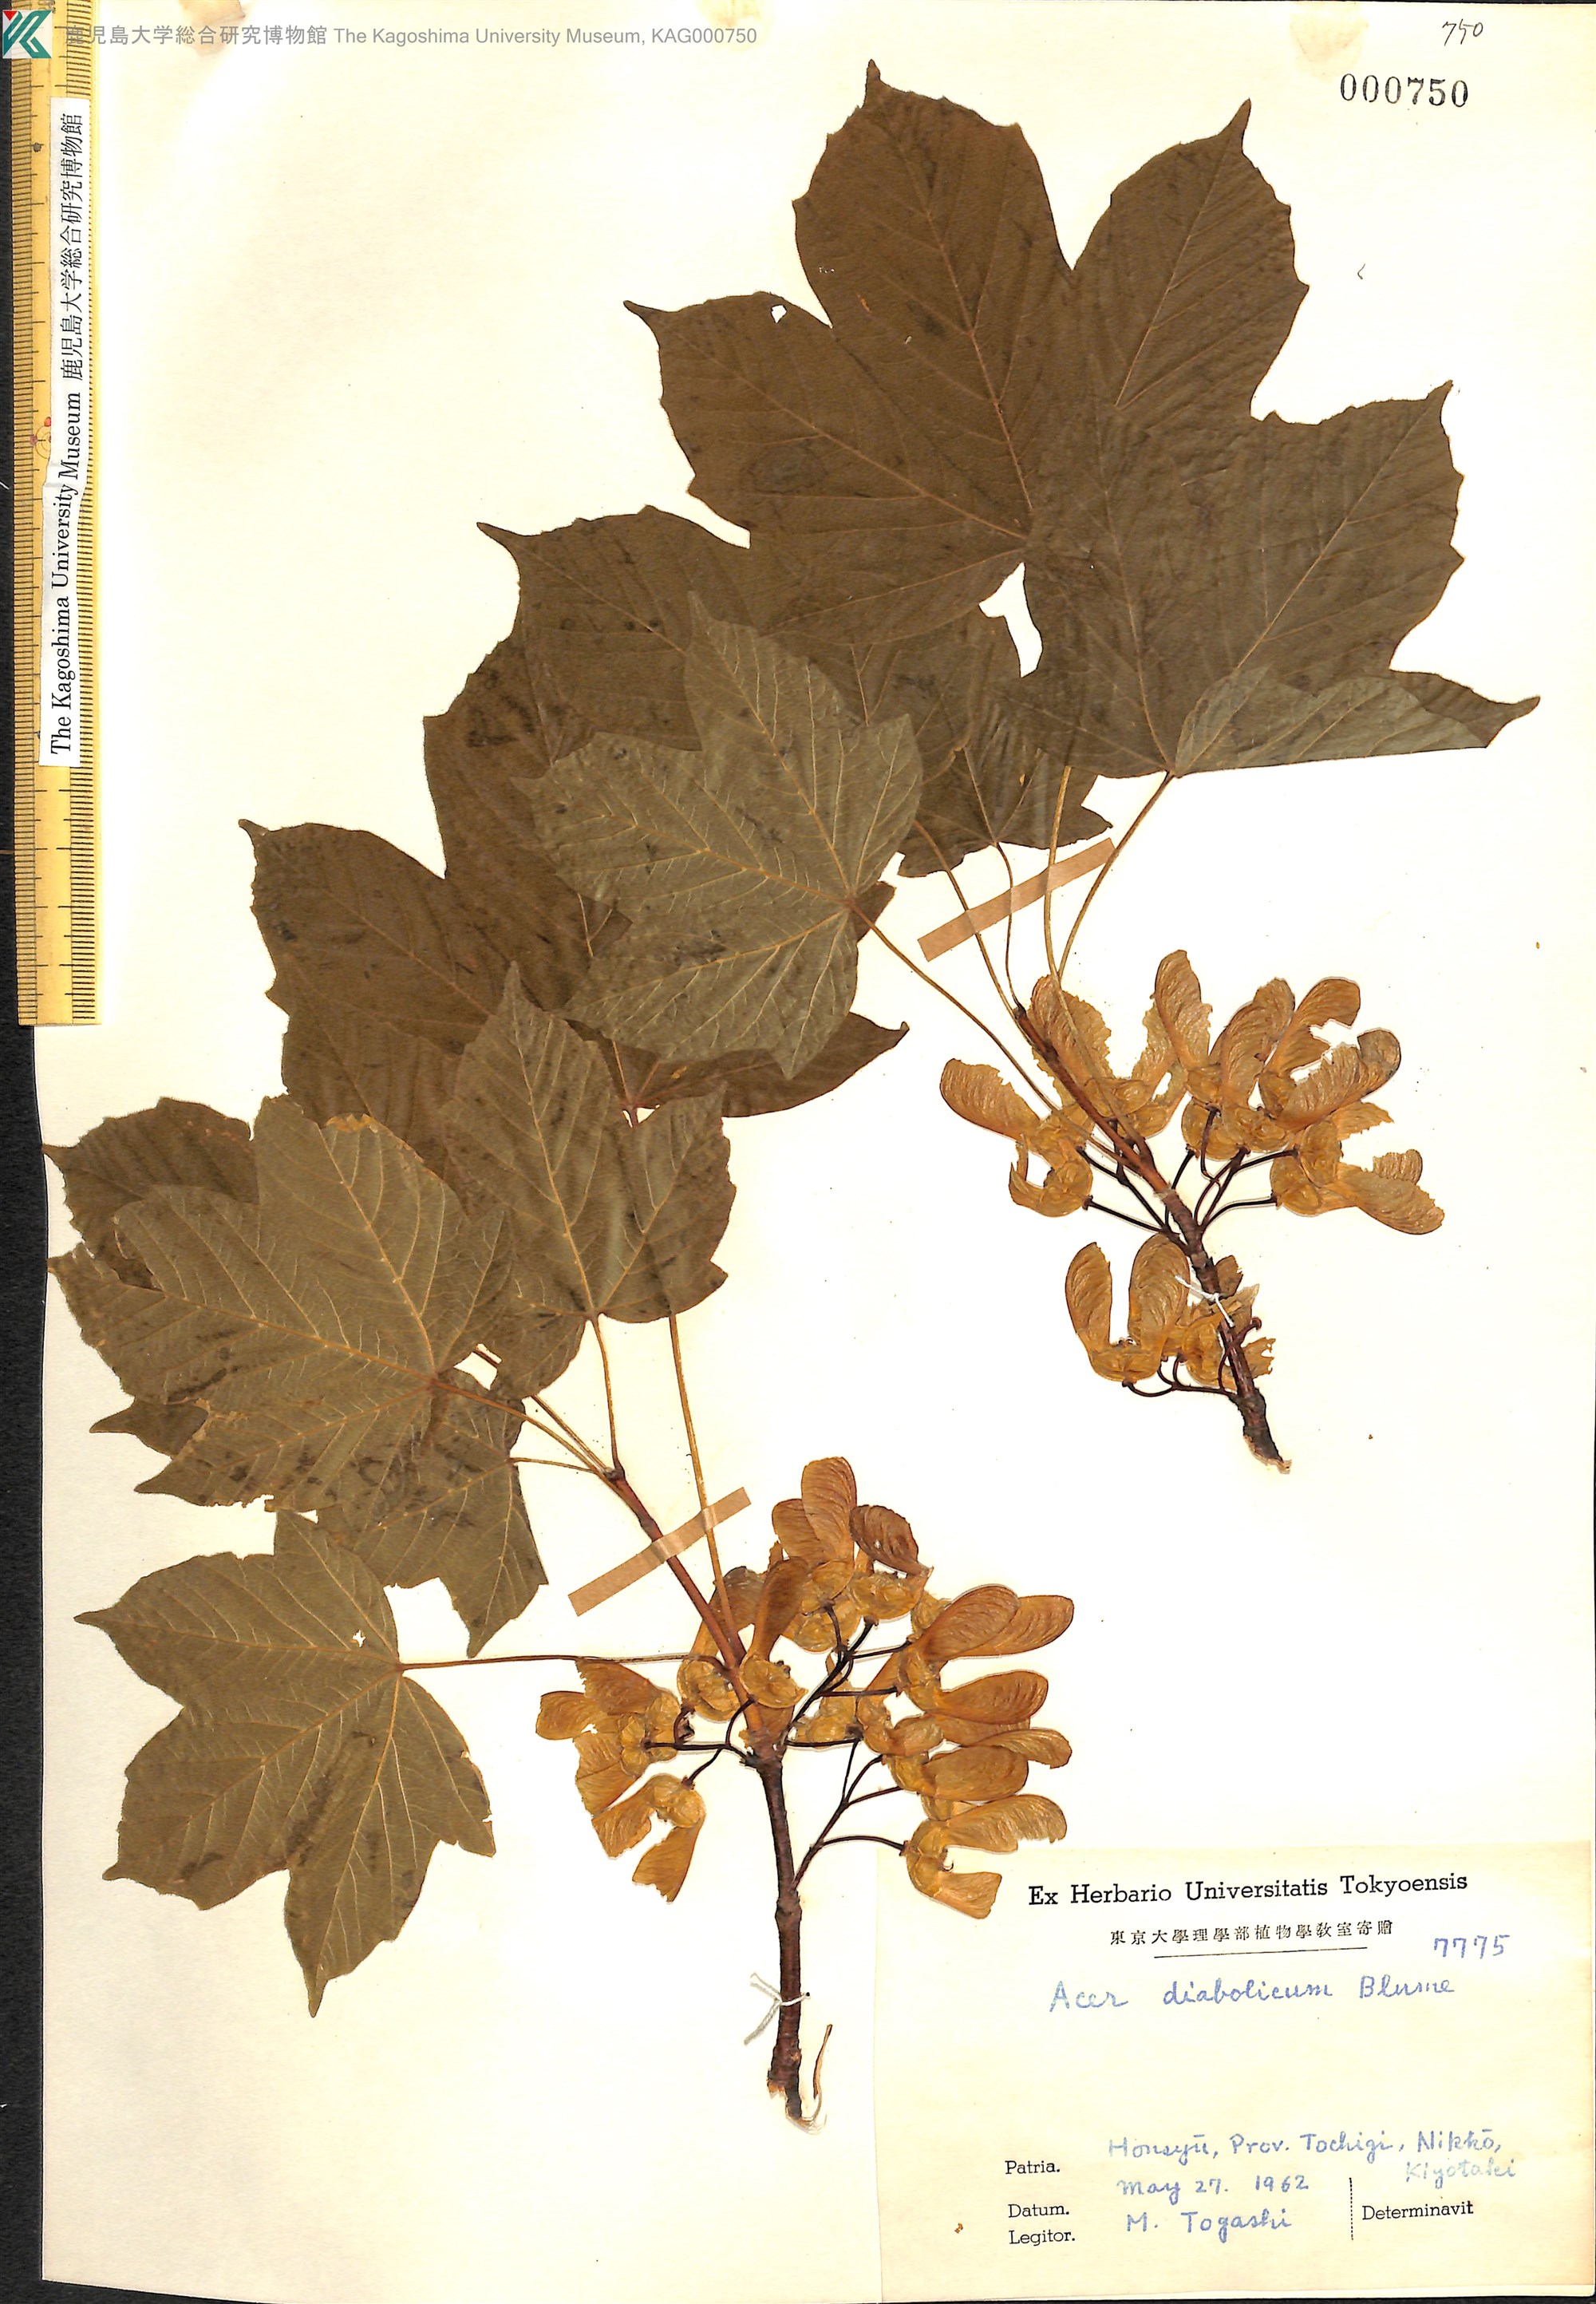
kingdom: Plantae
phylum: Tracheophyta
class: Magnoliopsida
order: Sapindales
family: Sapindaceae
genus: Acer
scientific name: Acer diabolicum
